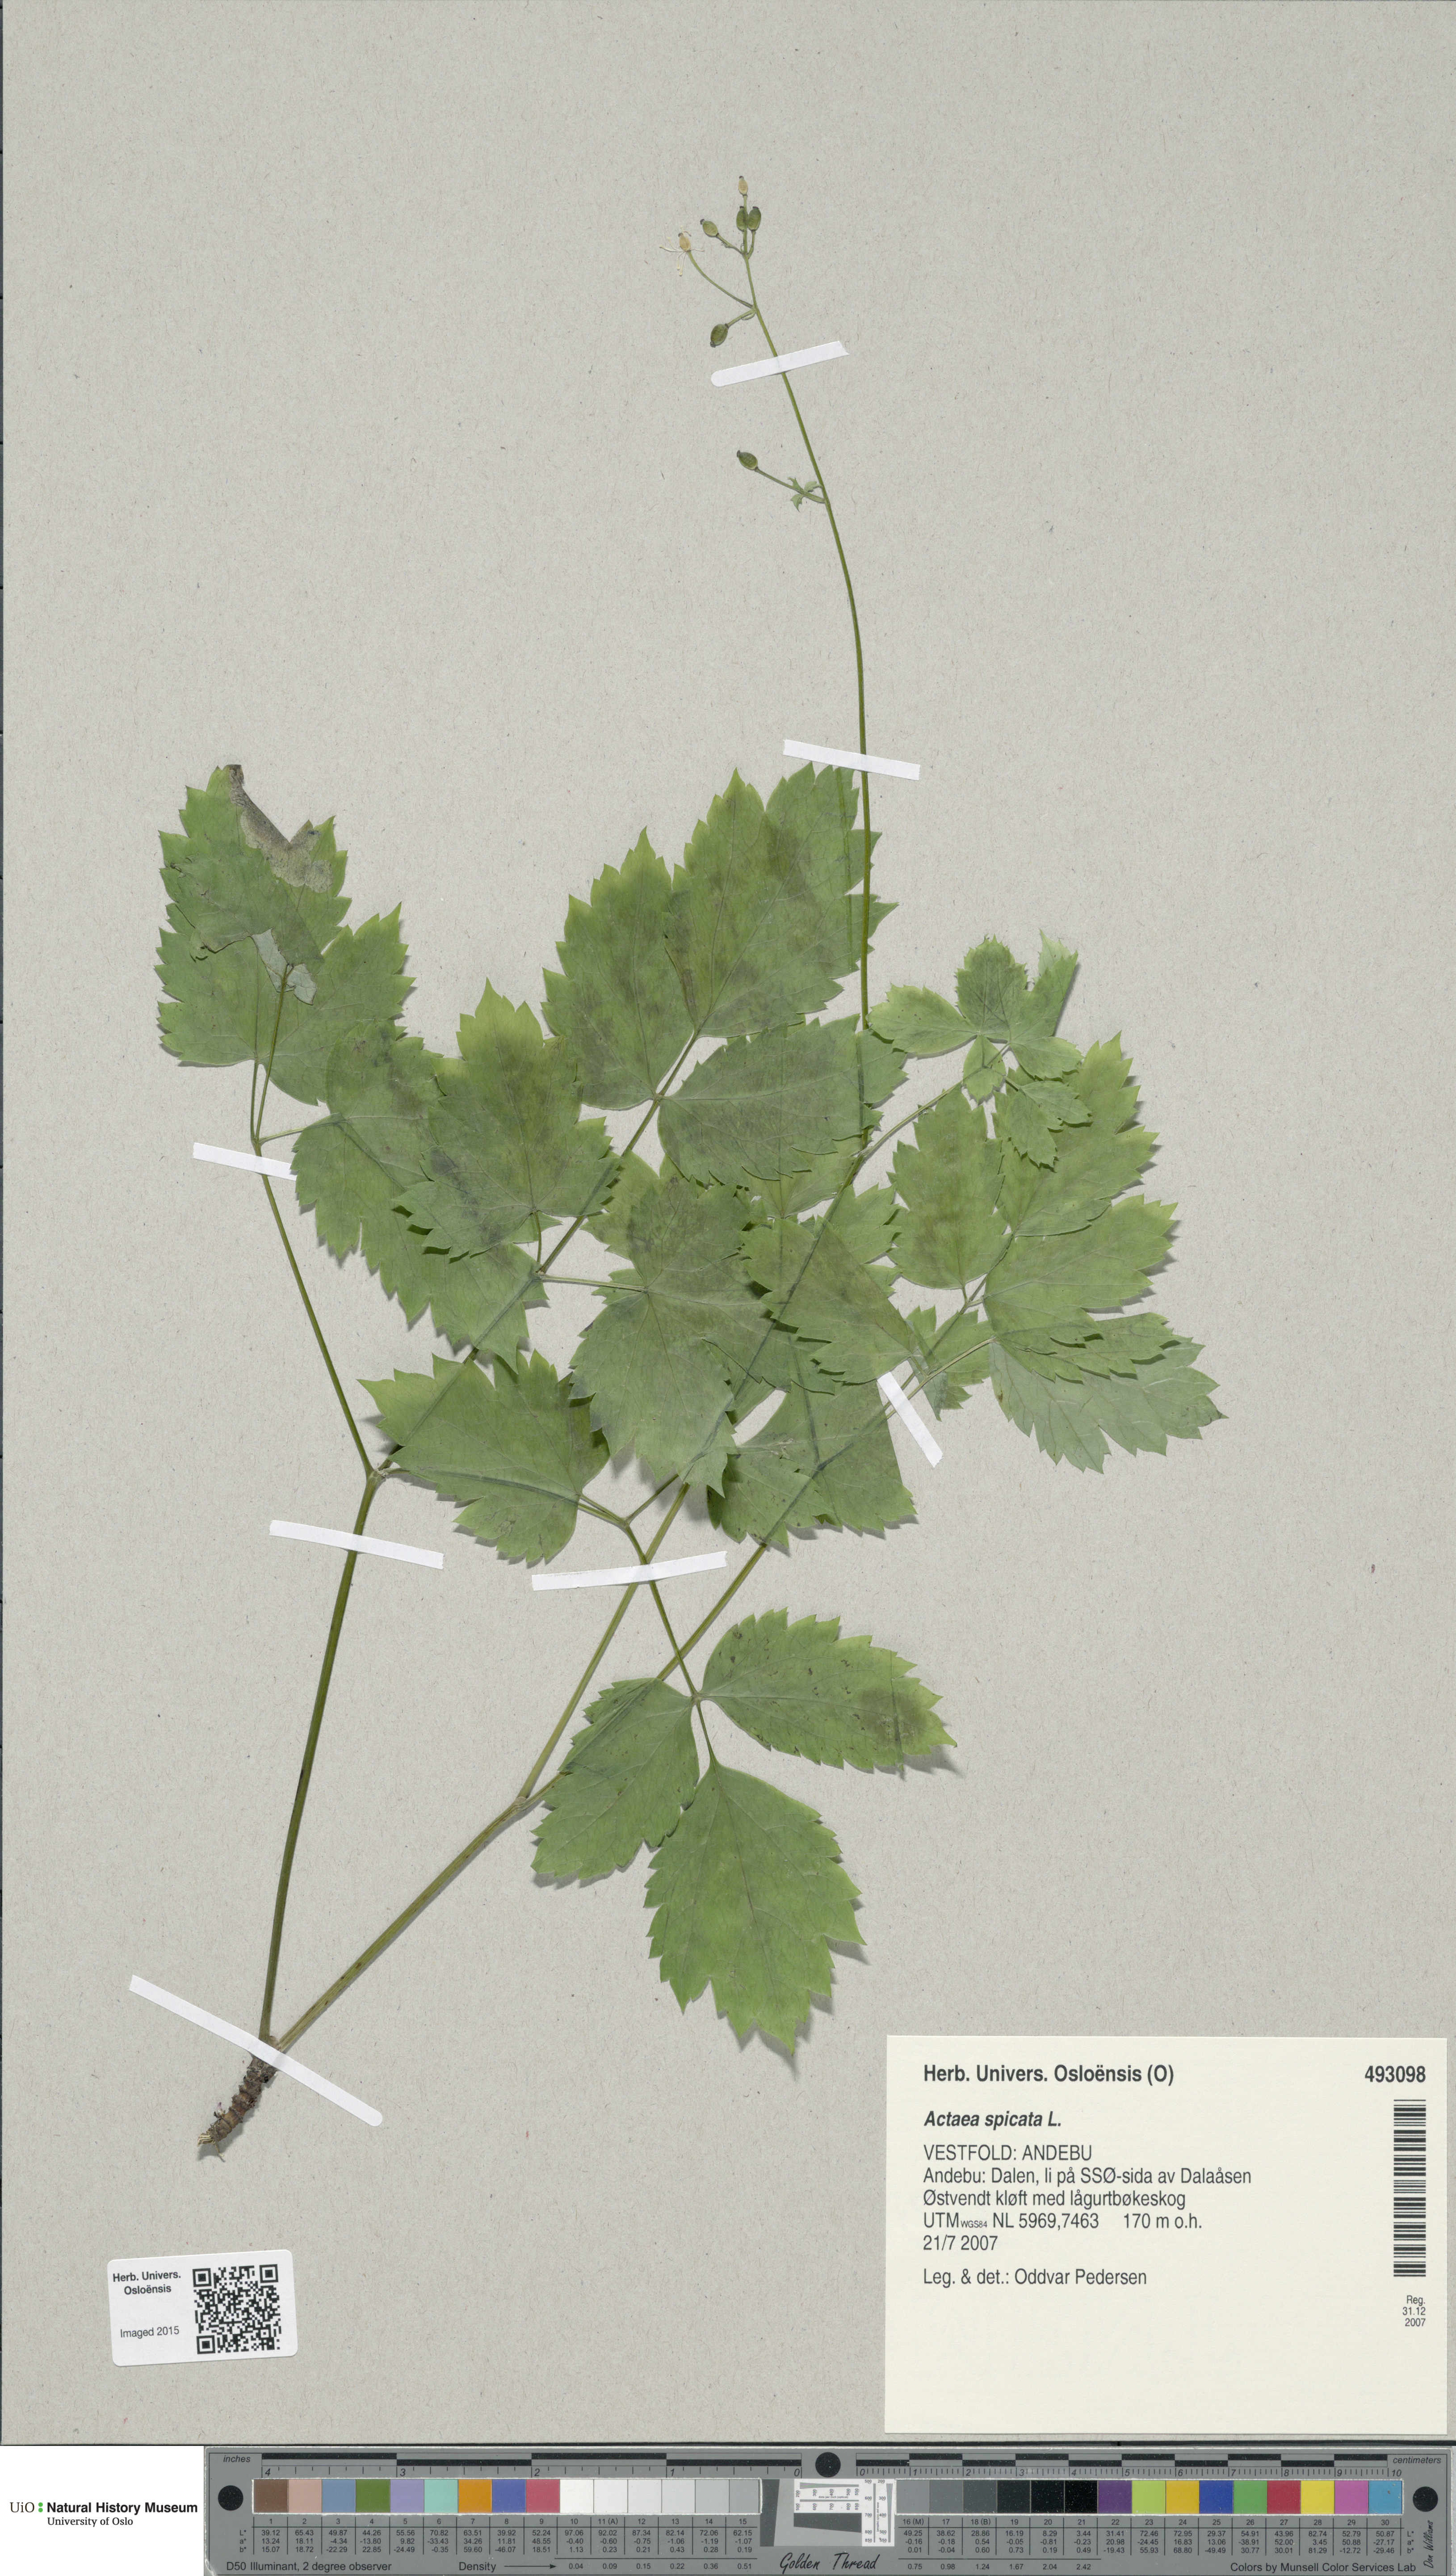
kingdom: Plantae
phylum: Tracheophyta
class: Magnoliopsida
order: Ranunculales
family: Ranunculaceae
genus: Actaea
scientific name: Actaea spicata
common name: Baneberry
